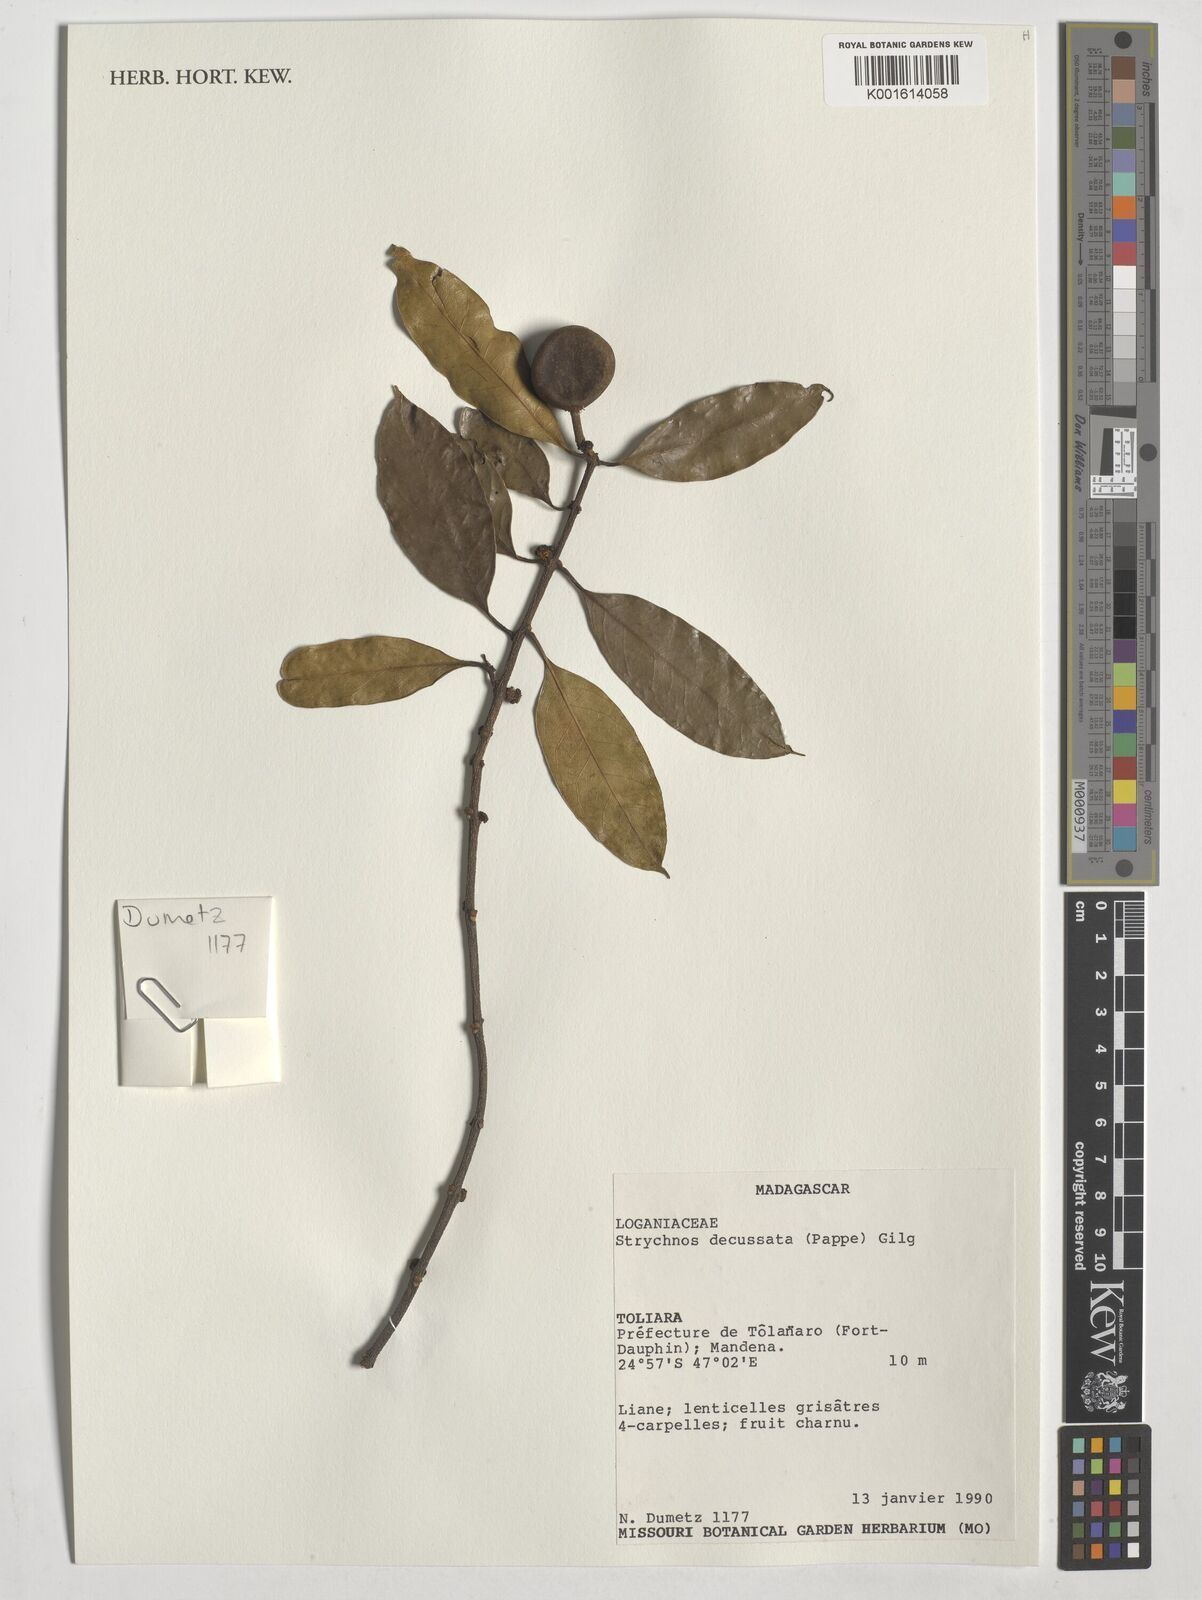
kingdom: Plantae
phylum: Tracheophyta
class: Magnoliopsida
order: Gentianales
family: Loganiaceae
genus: Strychnos
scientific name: Strychnos decussata
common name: Cape teak
